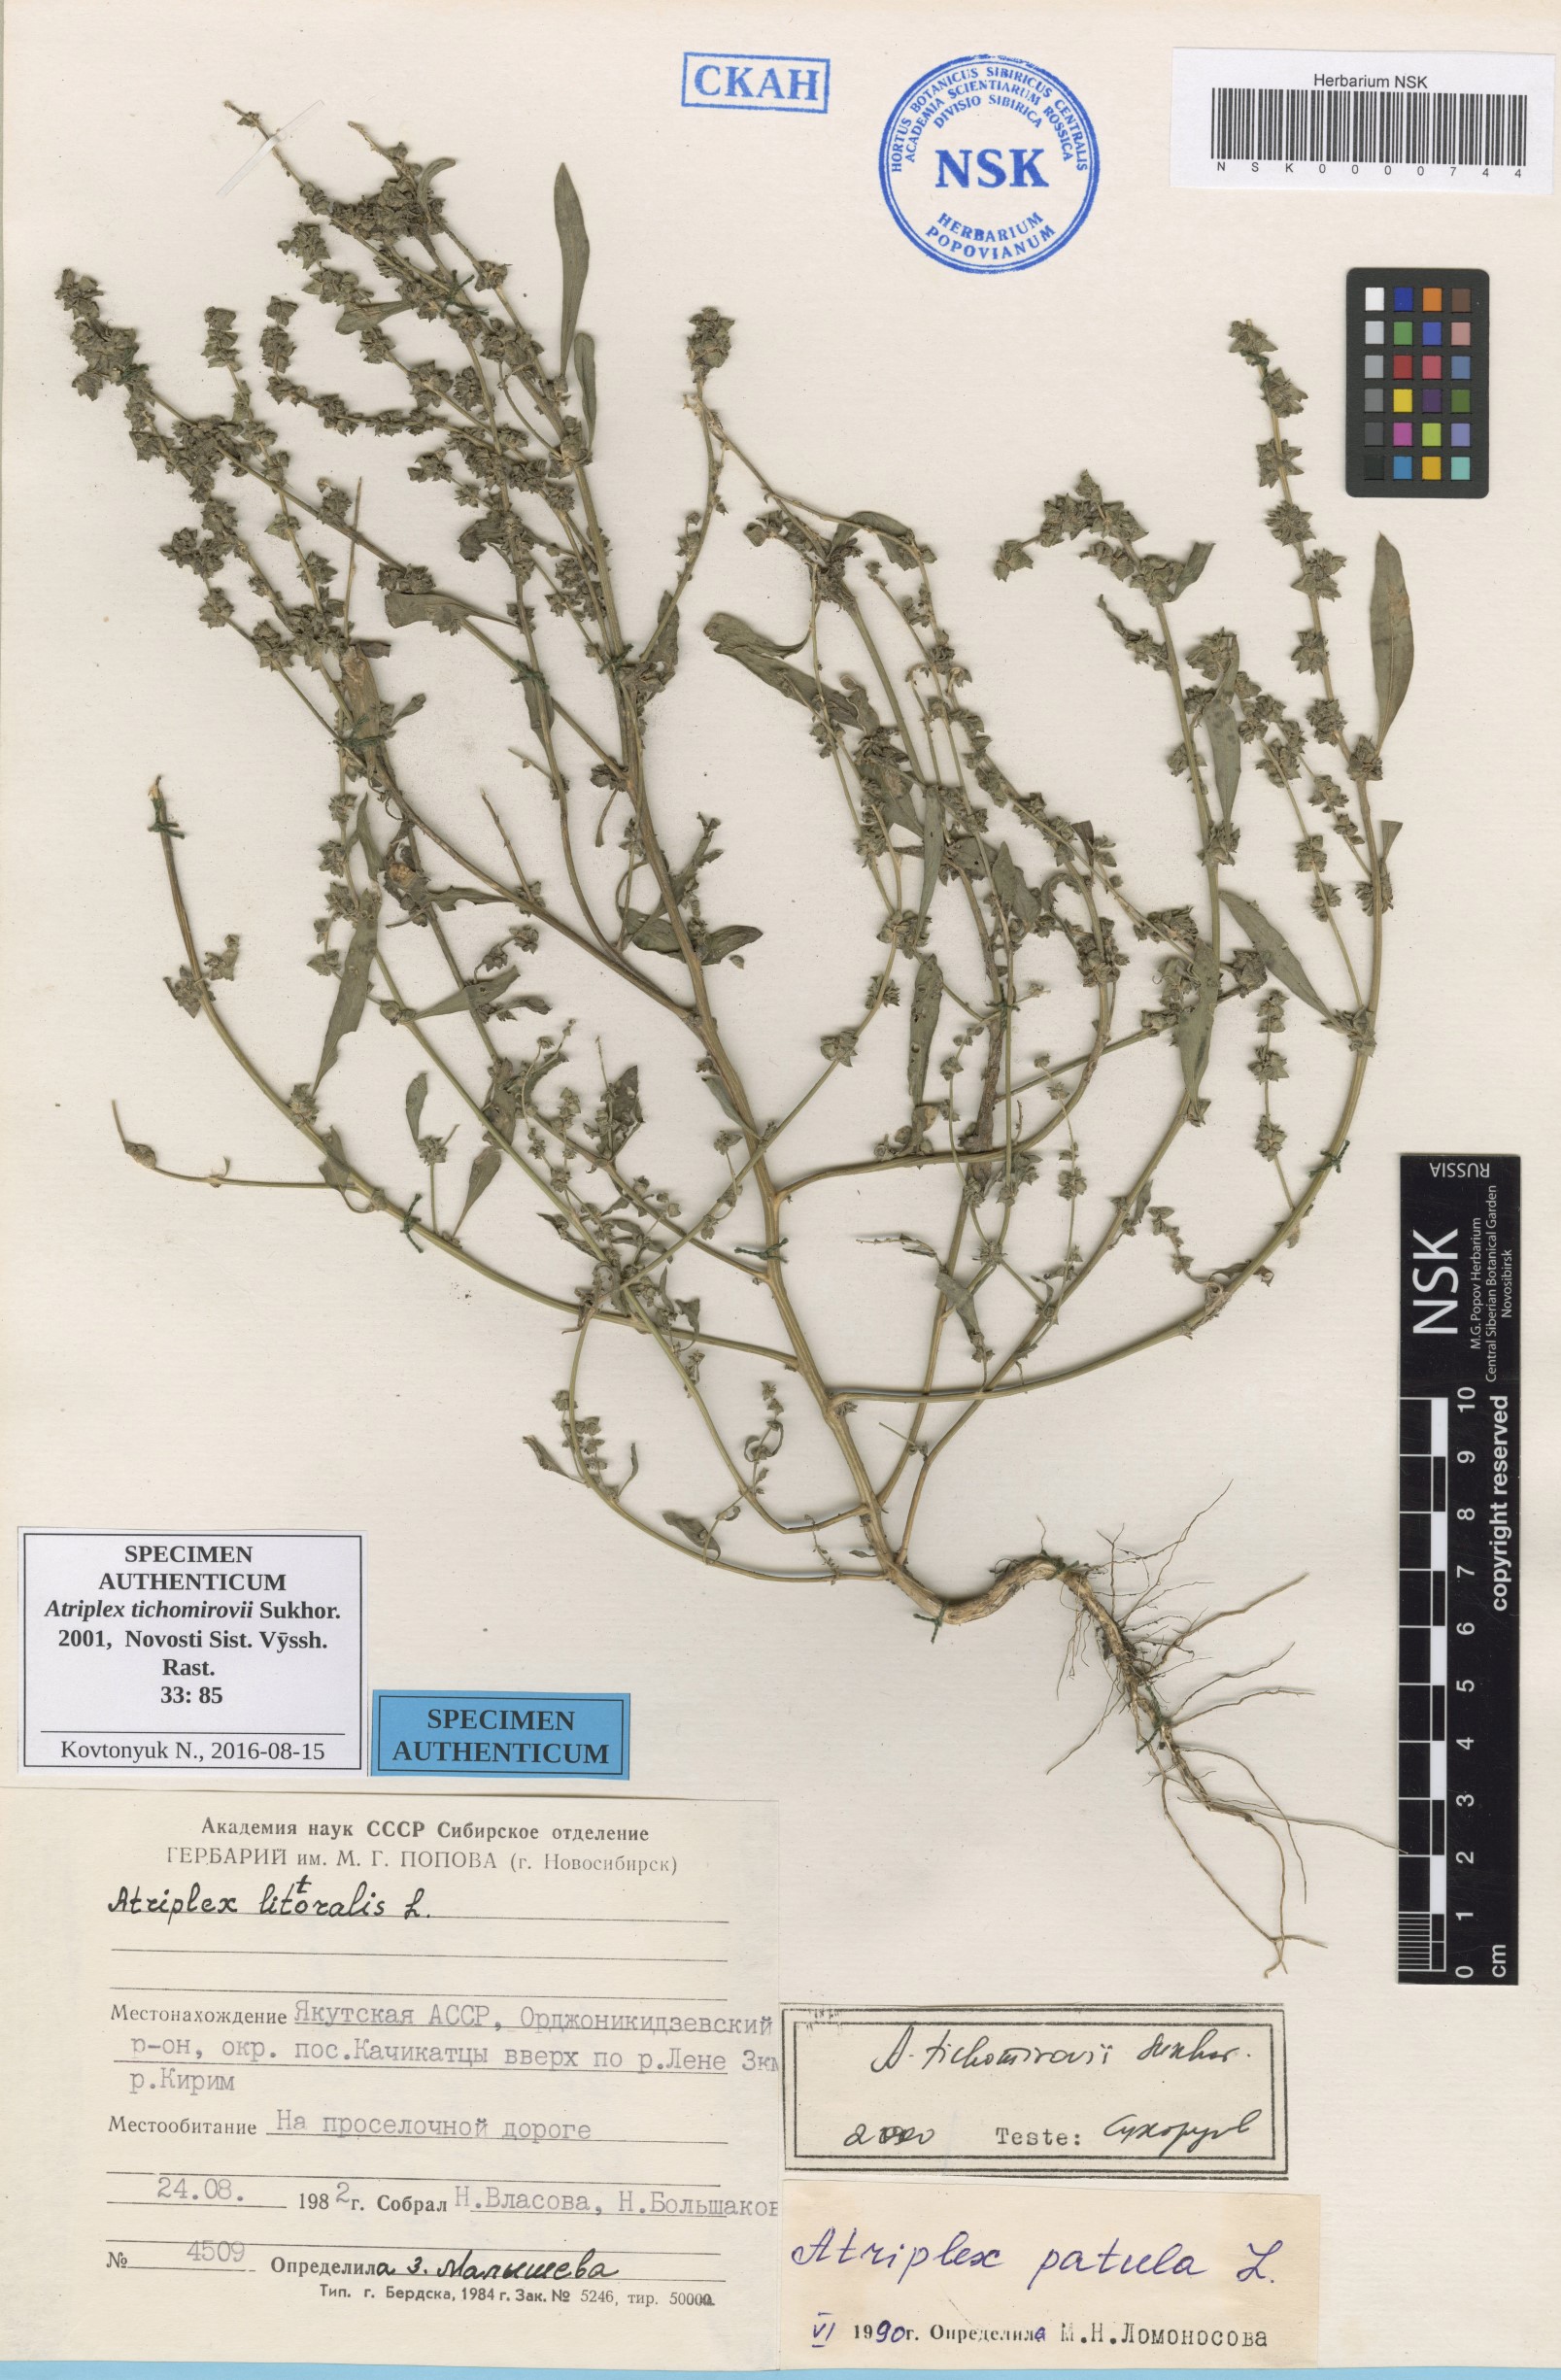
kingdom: Plantae
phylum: Tracheophyta
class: Magnoliopsida
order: Caryophyllales
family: Amaranthaceae
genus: Atriplex
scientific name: Atriplex tichomirovii
